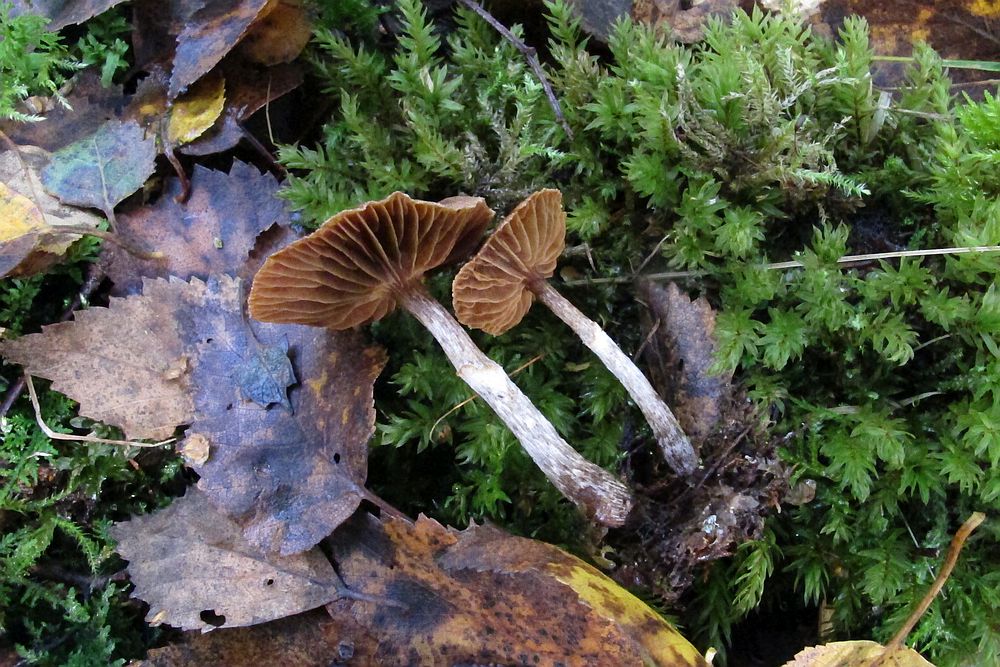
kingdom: Fungi
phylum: Basidiomycota
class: Agaricomycetes
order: Agaricales
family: Cortinariaceae
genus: Cortinarius
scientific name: Cortinarius
